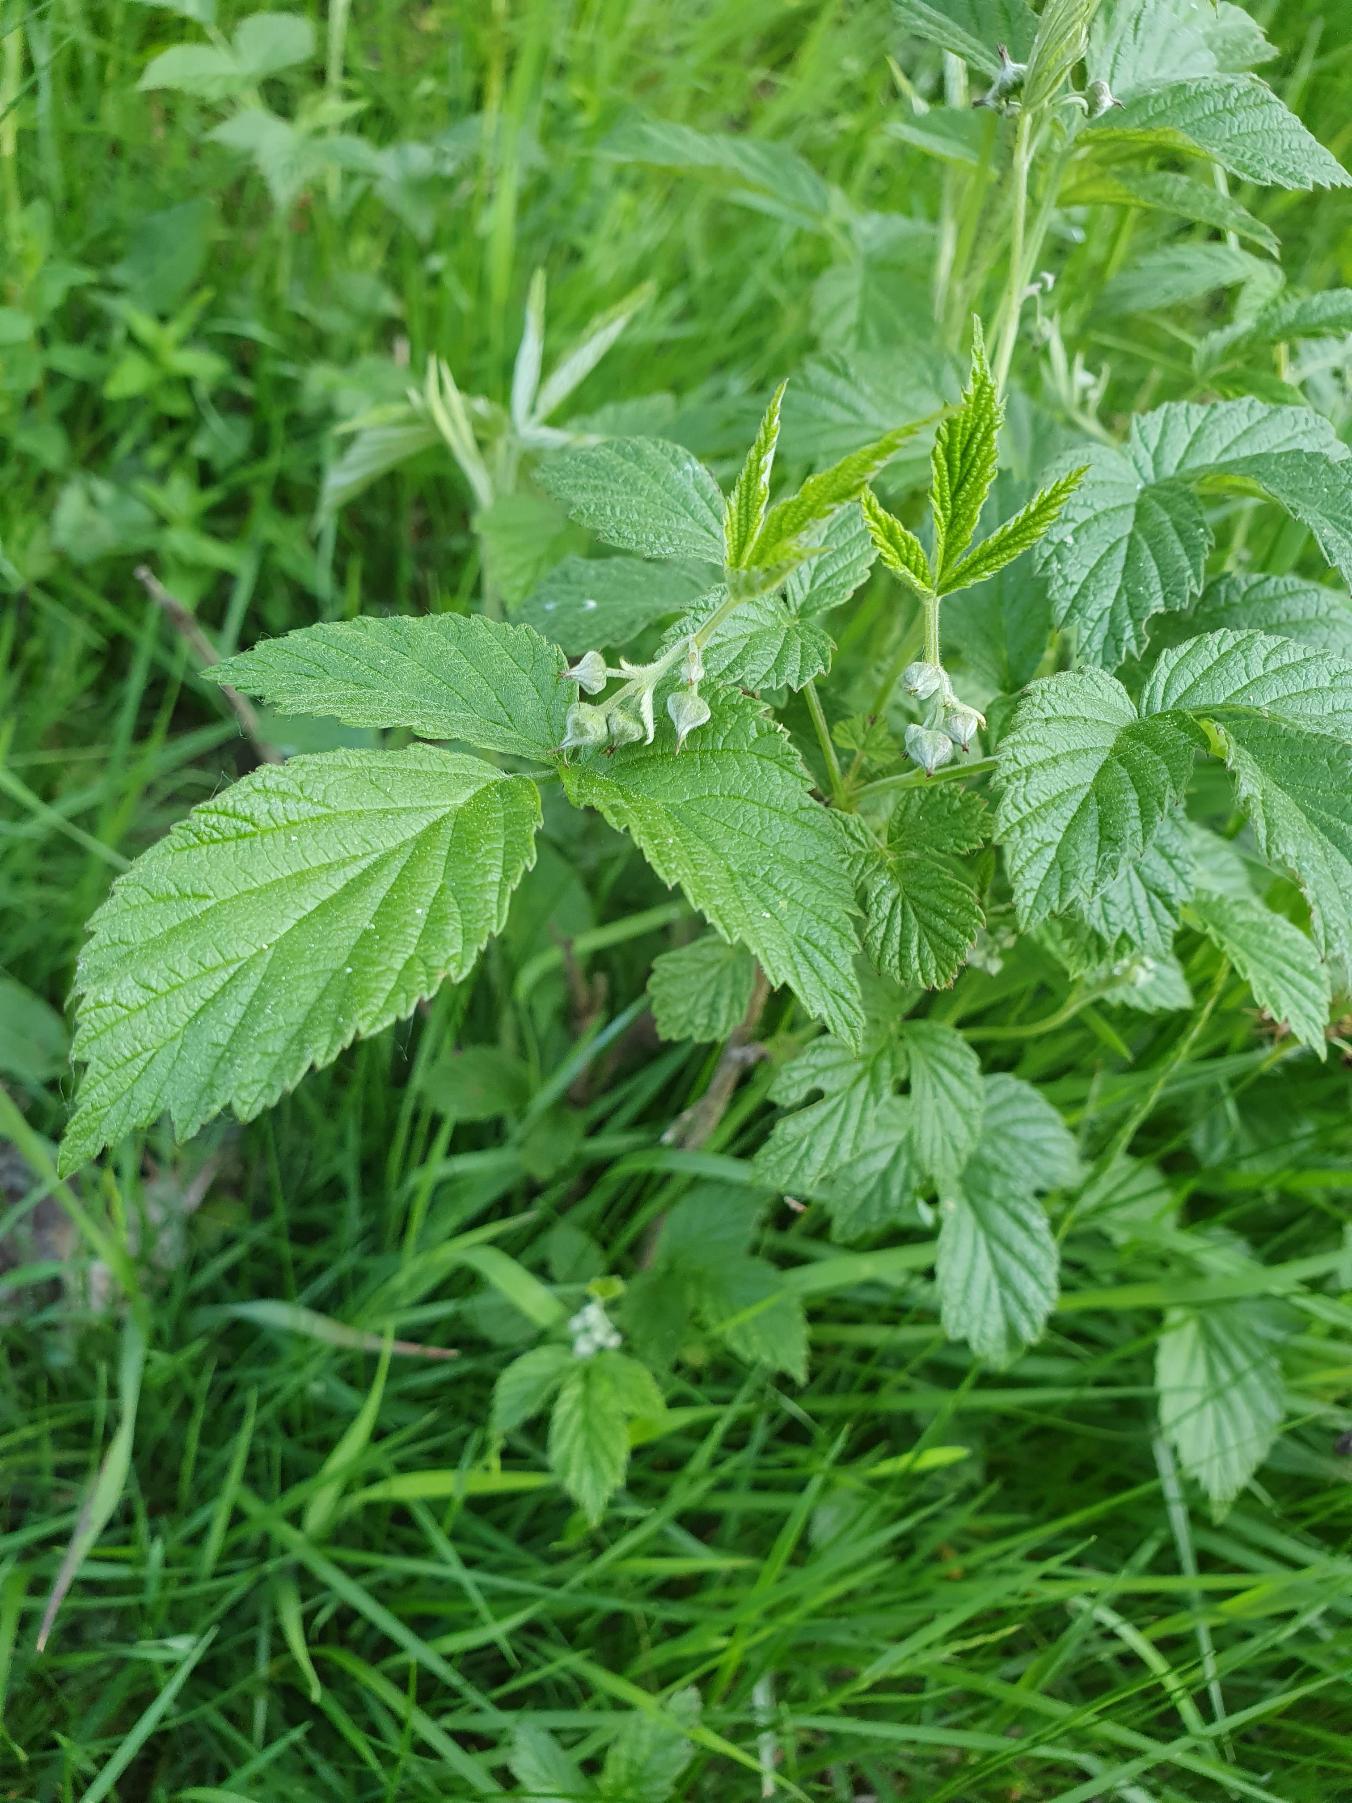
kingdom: Plantae
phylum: Tracheophyta
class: Magnoliopsida
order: Rosales
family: Rosaceae
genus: Rubus
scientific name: Rubus idaeus
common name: Hindbær
